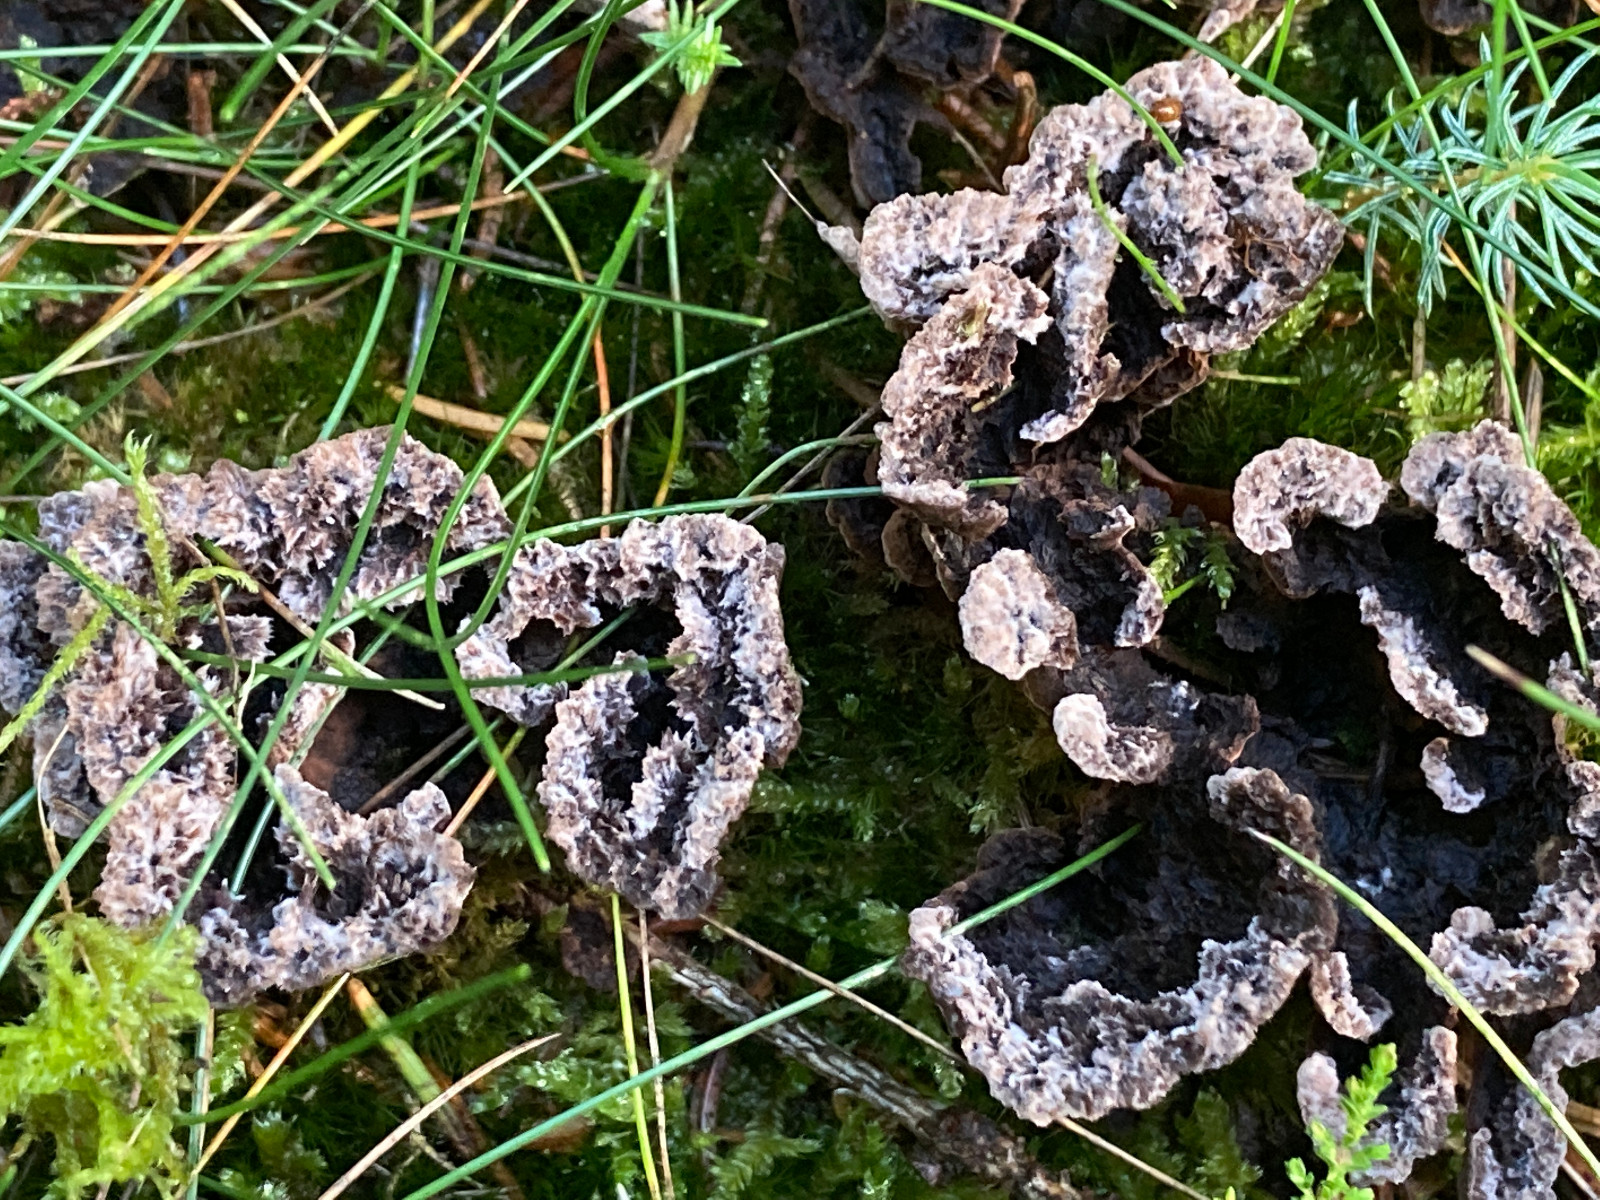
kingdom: Fungi
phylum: Basidiomycota
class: Agaricomycetes
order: Thelephorales
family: Thelephoraceae
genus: Thelephora
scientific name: Thelephora terrestris
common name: fliget frynsesvamp
